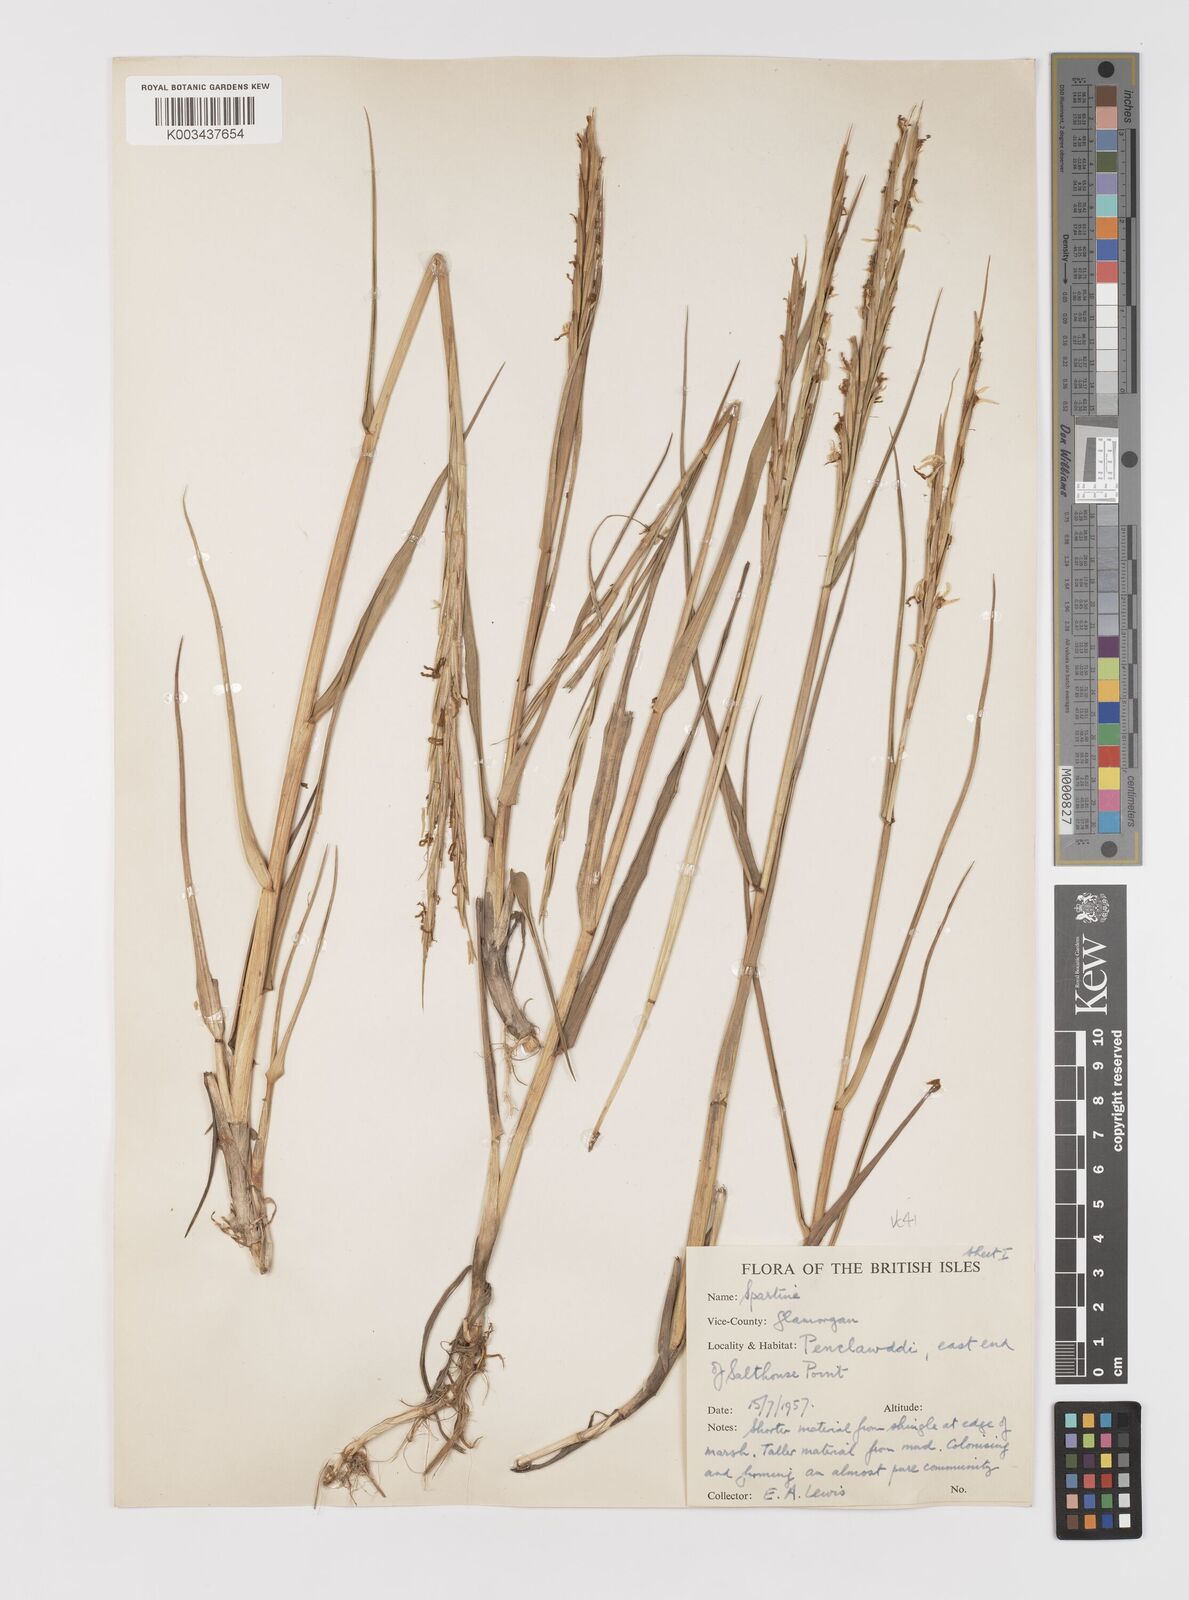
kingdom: Plantae
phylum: Tracheophyta
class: Liliopsida
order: Poales
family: Poaceae
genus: Sporobolus
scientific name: Sporobolus anglicus
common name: English cordgrass
